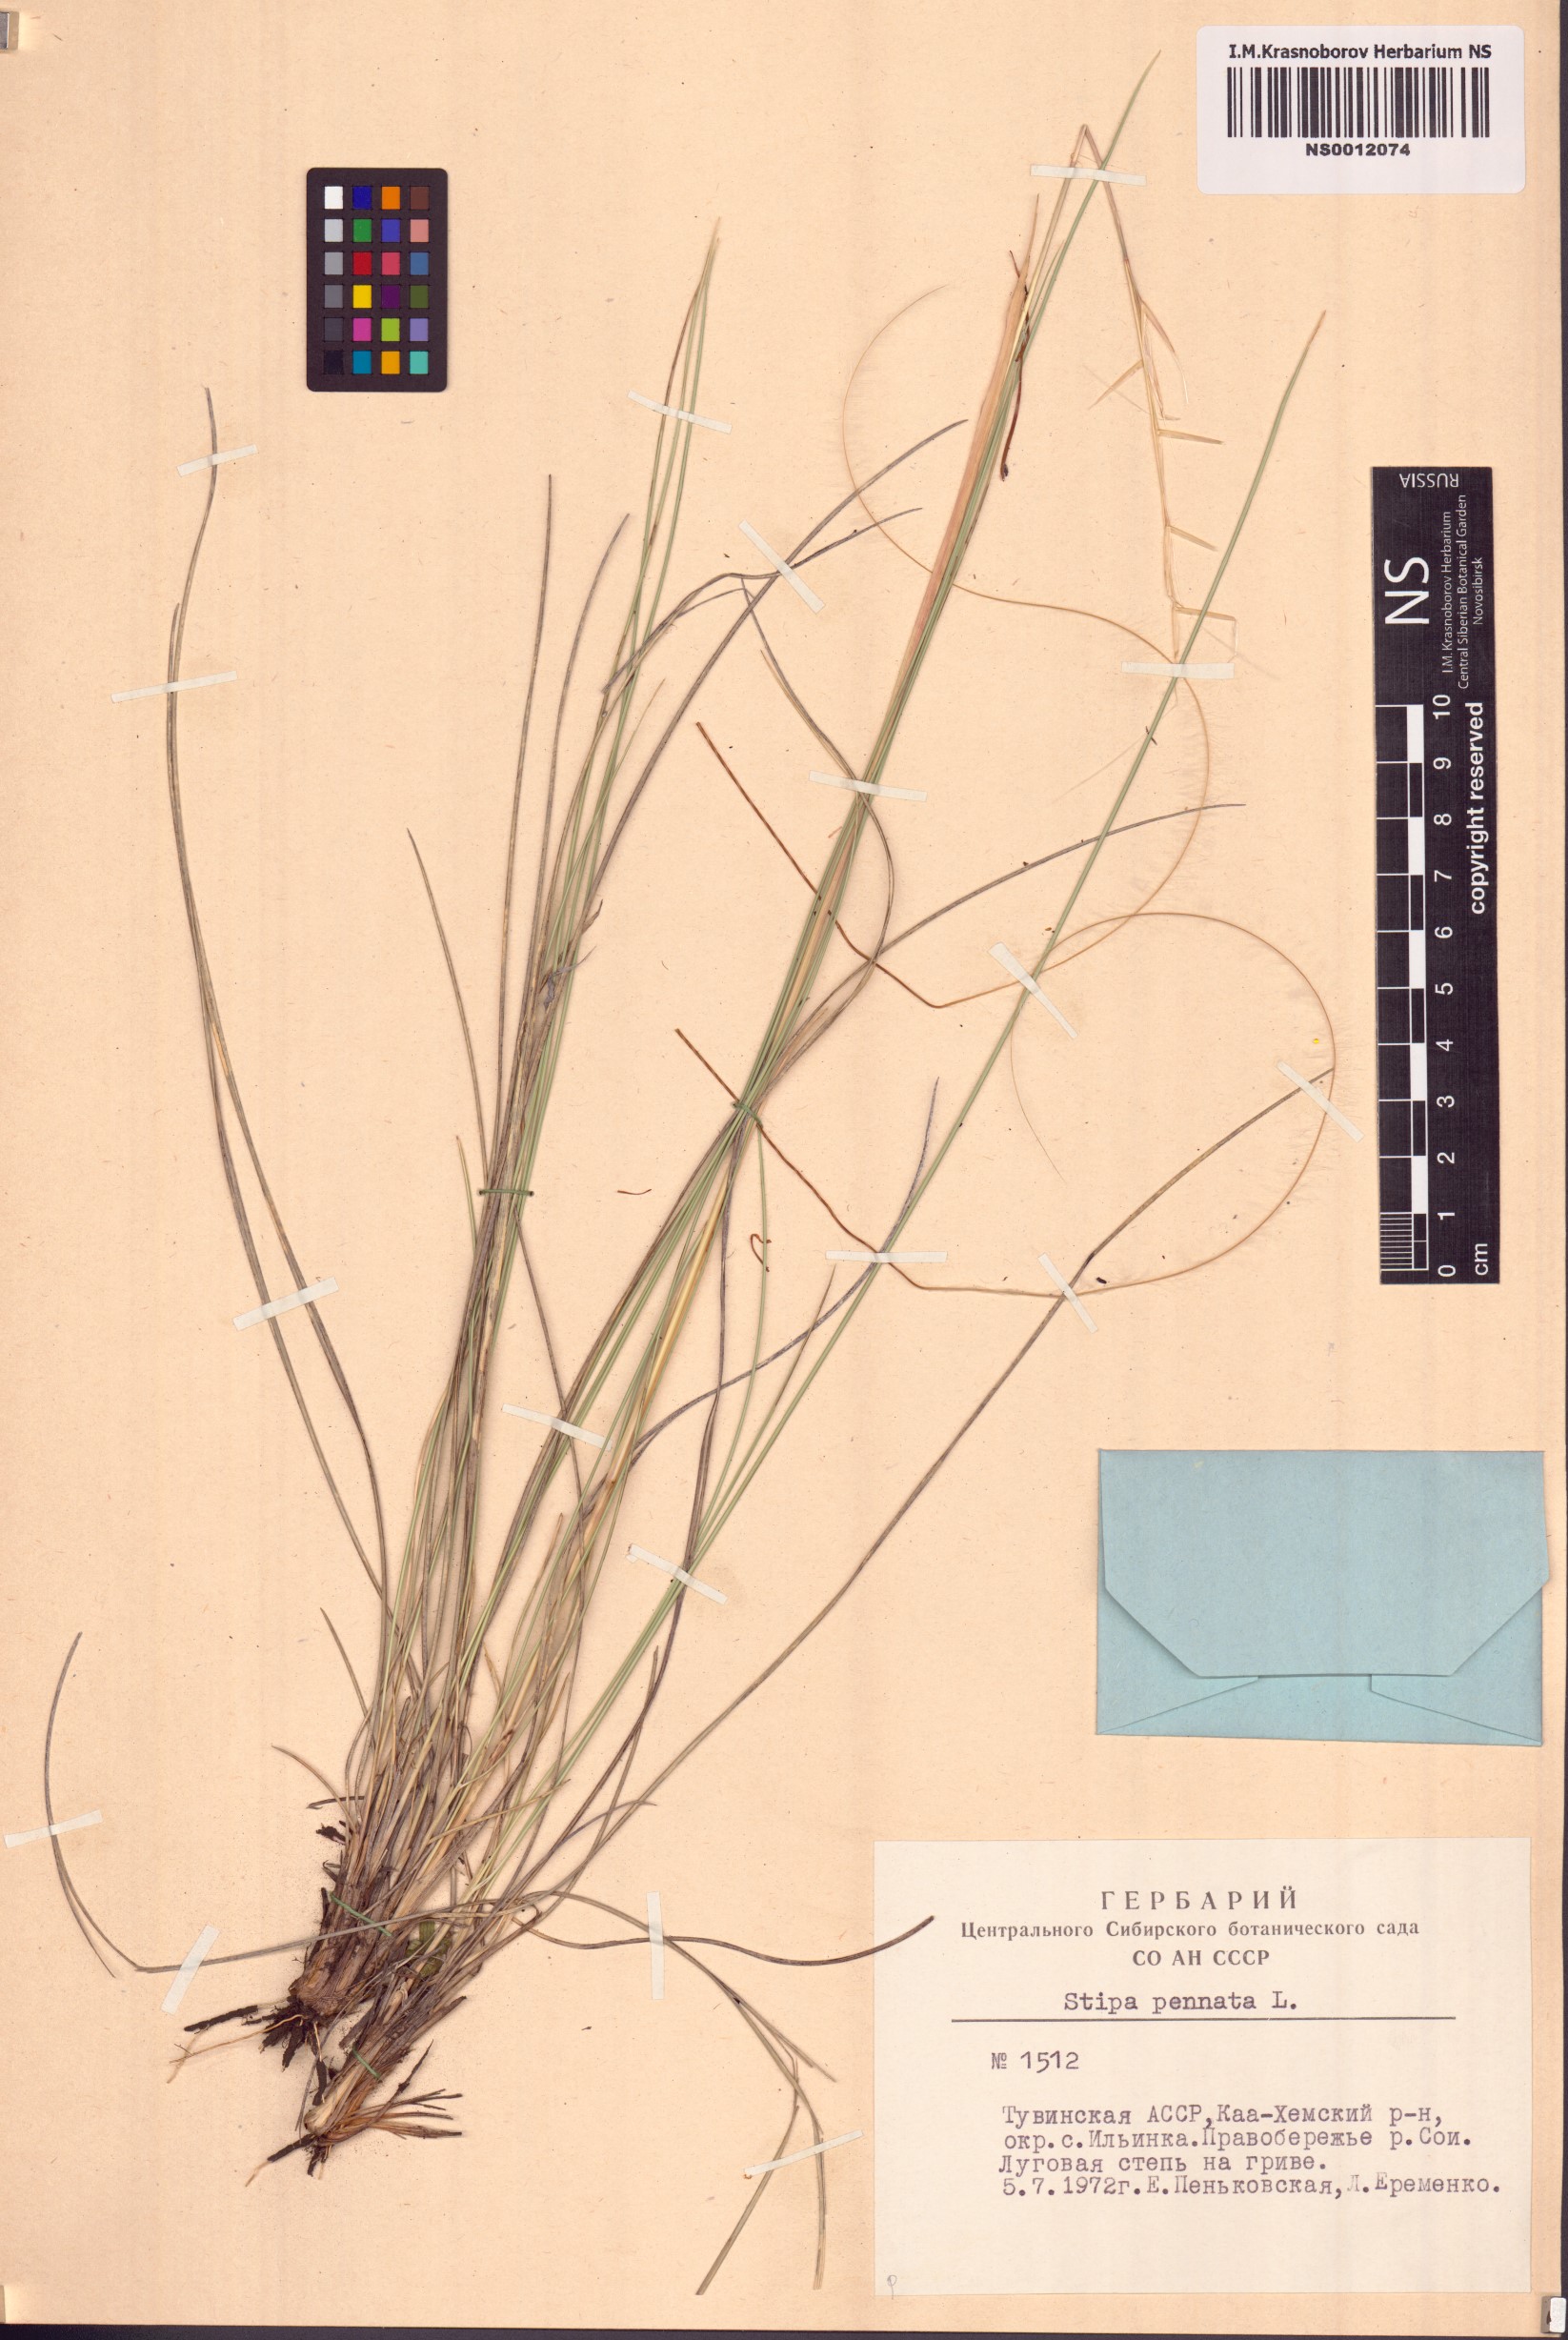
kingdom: Plantae
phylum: Tracheophyta
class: Liliopsida
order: Poales
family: Poaceae
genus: Stipa
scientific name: Stipa pennata
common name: European feather grass
